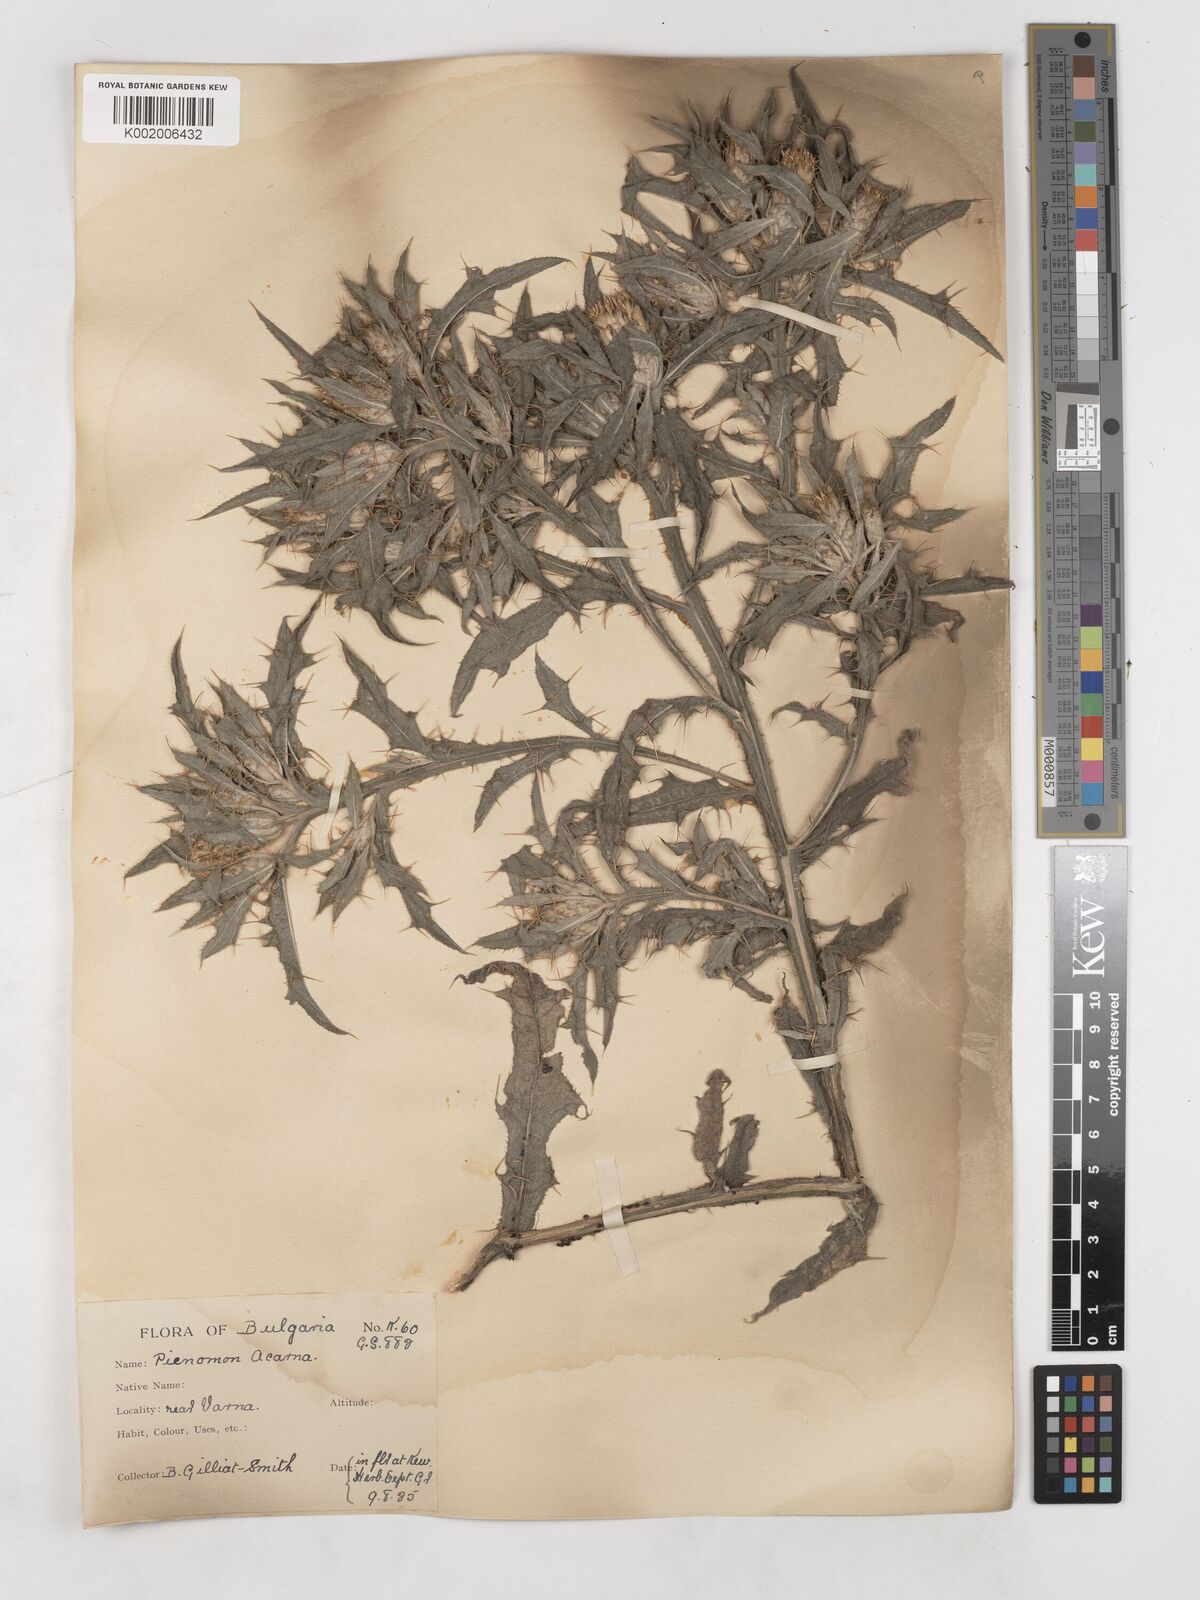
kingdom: Plantae
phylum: Tracheophyta
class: Magnoliopsida
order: Asterales
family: Asteraceae
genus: Picnomon
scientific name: Picnomon acarna
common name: Soldier thistle
